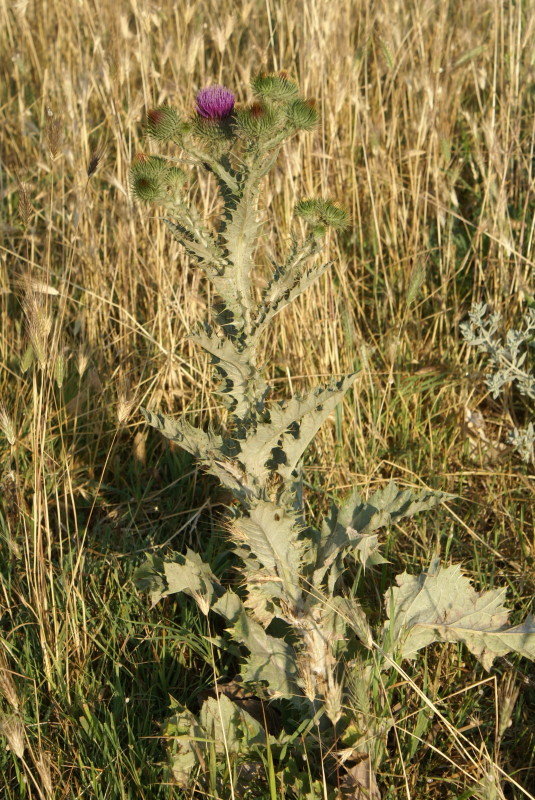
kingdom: Plantae
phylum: Tracheophyta
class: Magnoliopsida
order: Asterales
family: Asteraceae
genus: Onopordum
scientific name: Onopordum acanthium
